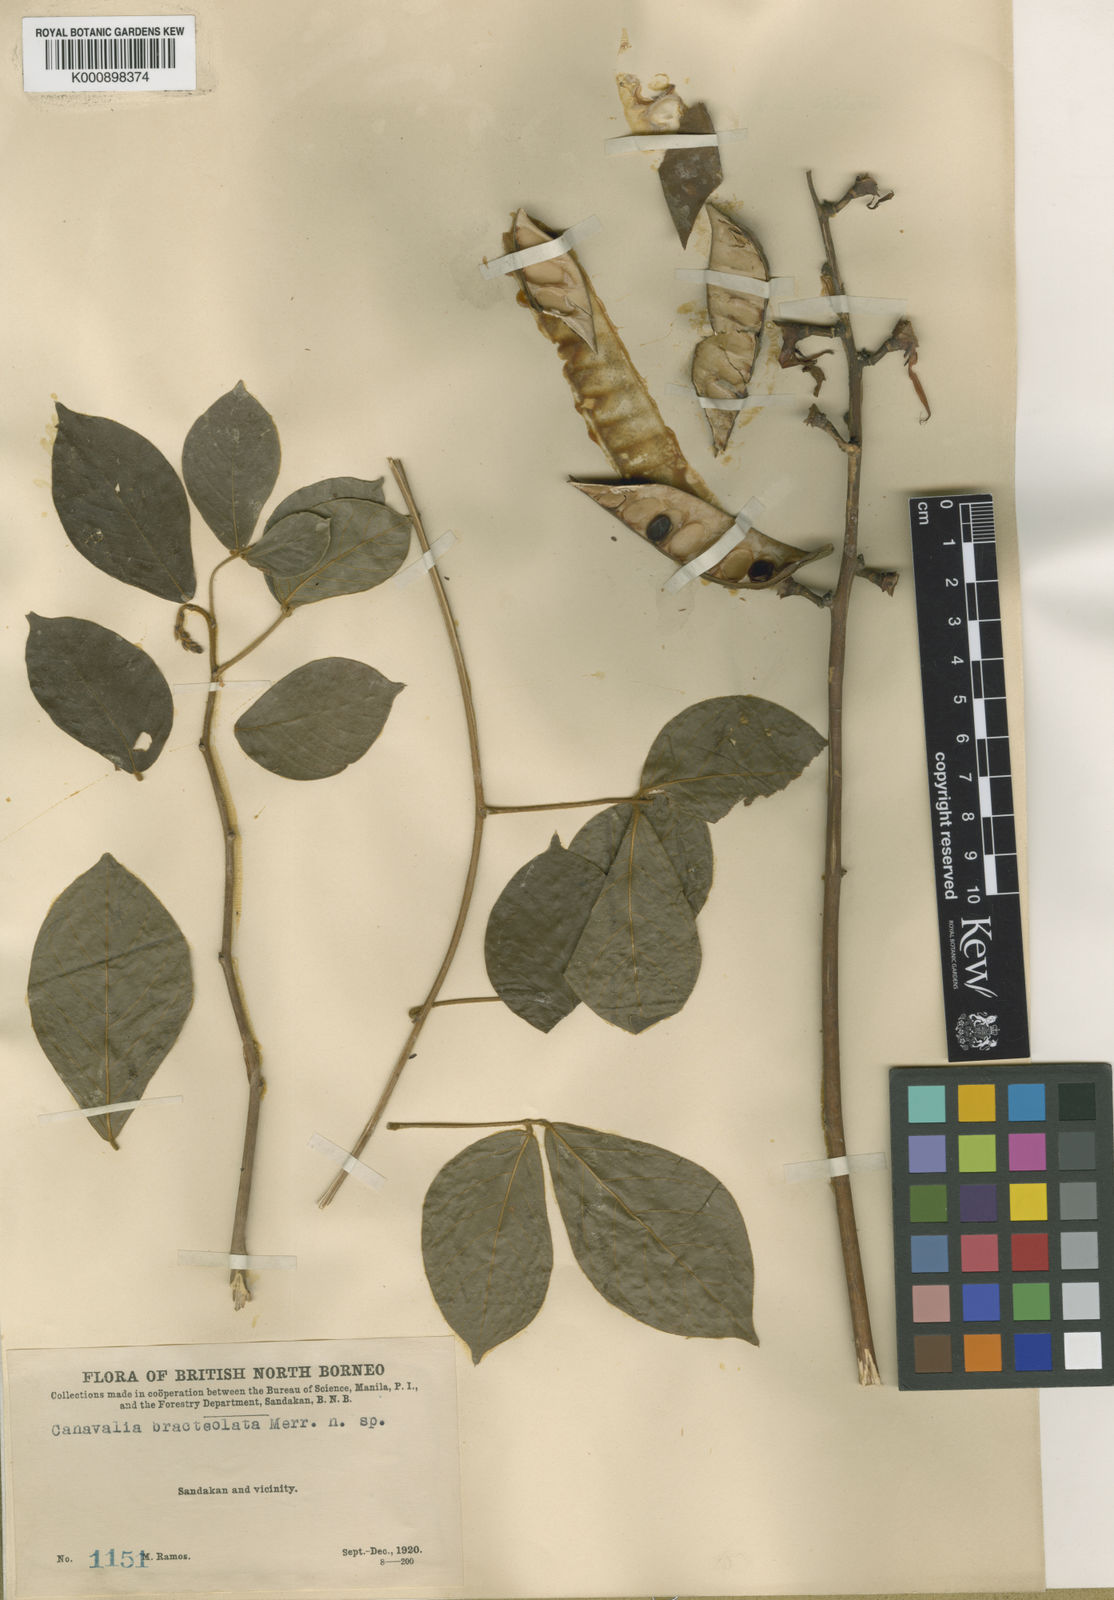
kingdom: Plantae
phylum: Tracheophyta
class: Magnoliopsida
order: Fabales
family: Fabaceae
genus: Dioclea
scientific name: Dioclea virgata
